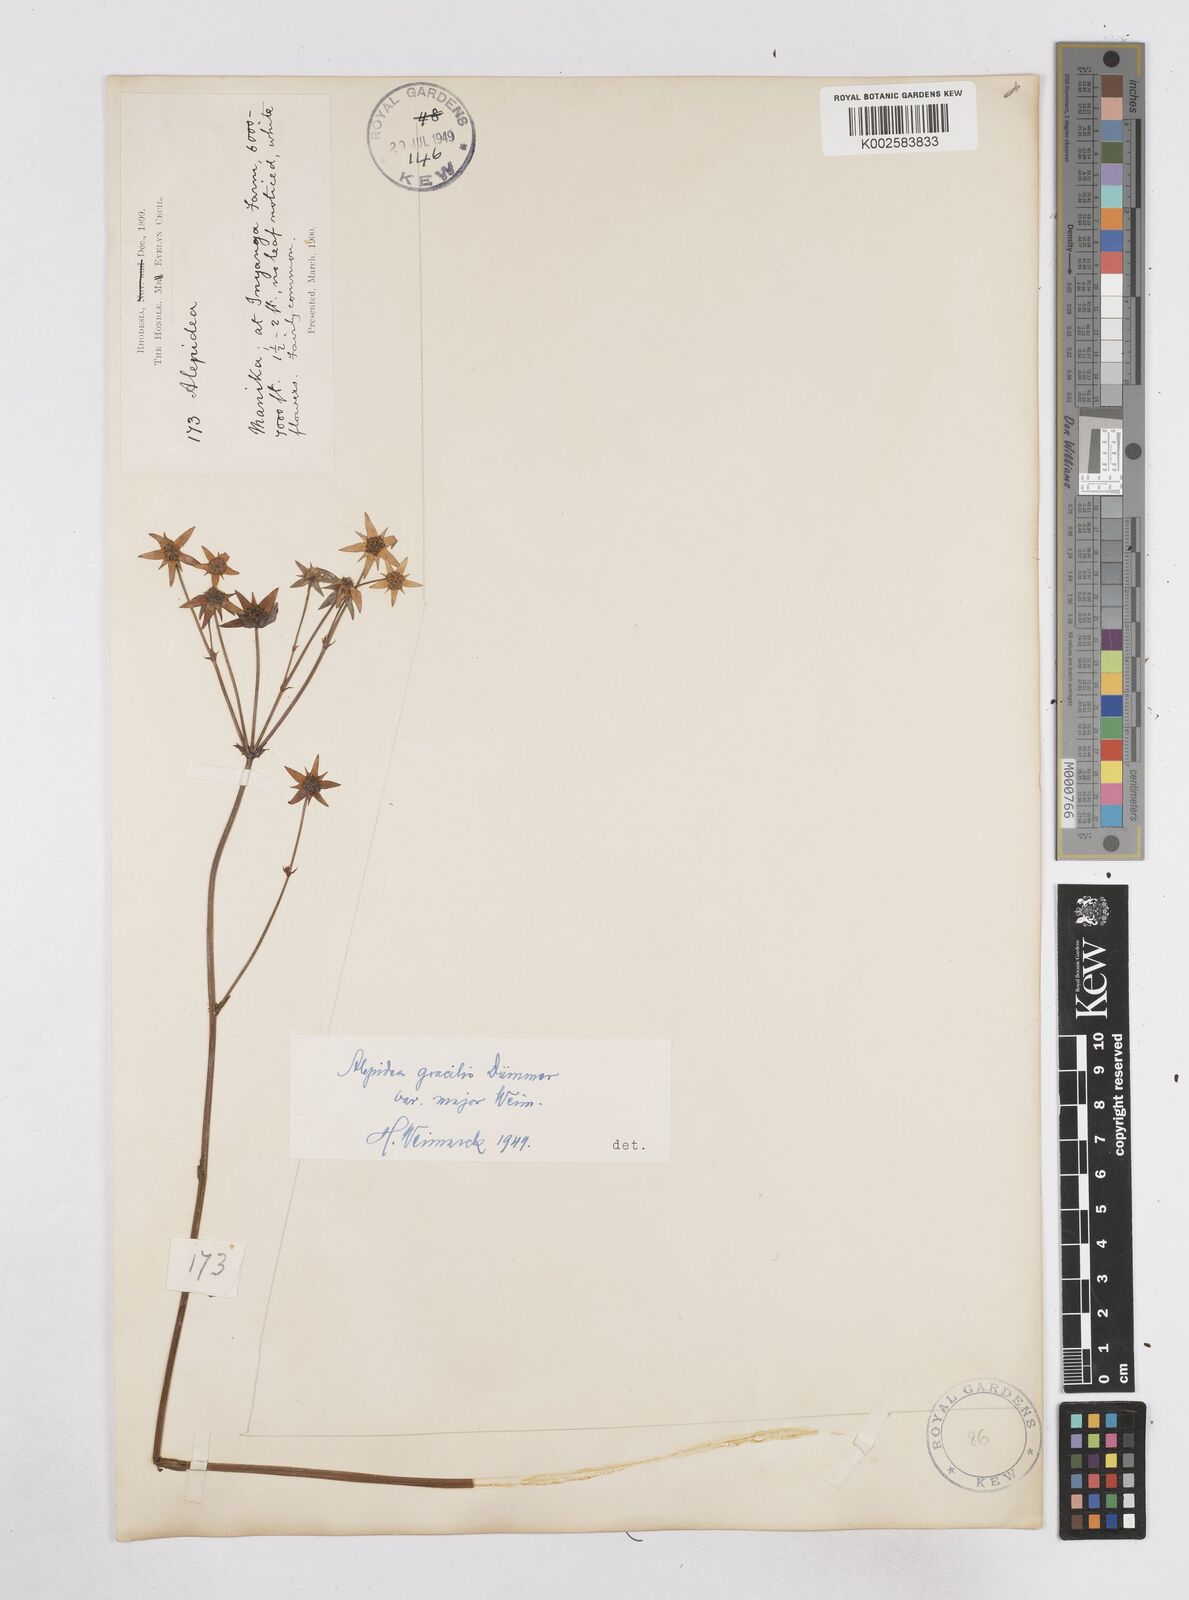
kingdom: Plantae
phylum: Tracheophyta
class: Magnoliopsida
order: Apiales
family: Apiaceae
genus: Alepidea
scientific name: Alepidea peduncularis
